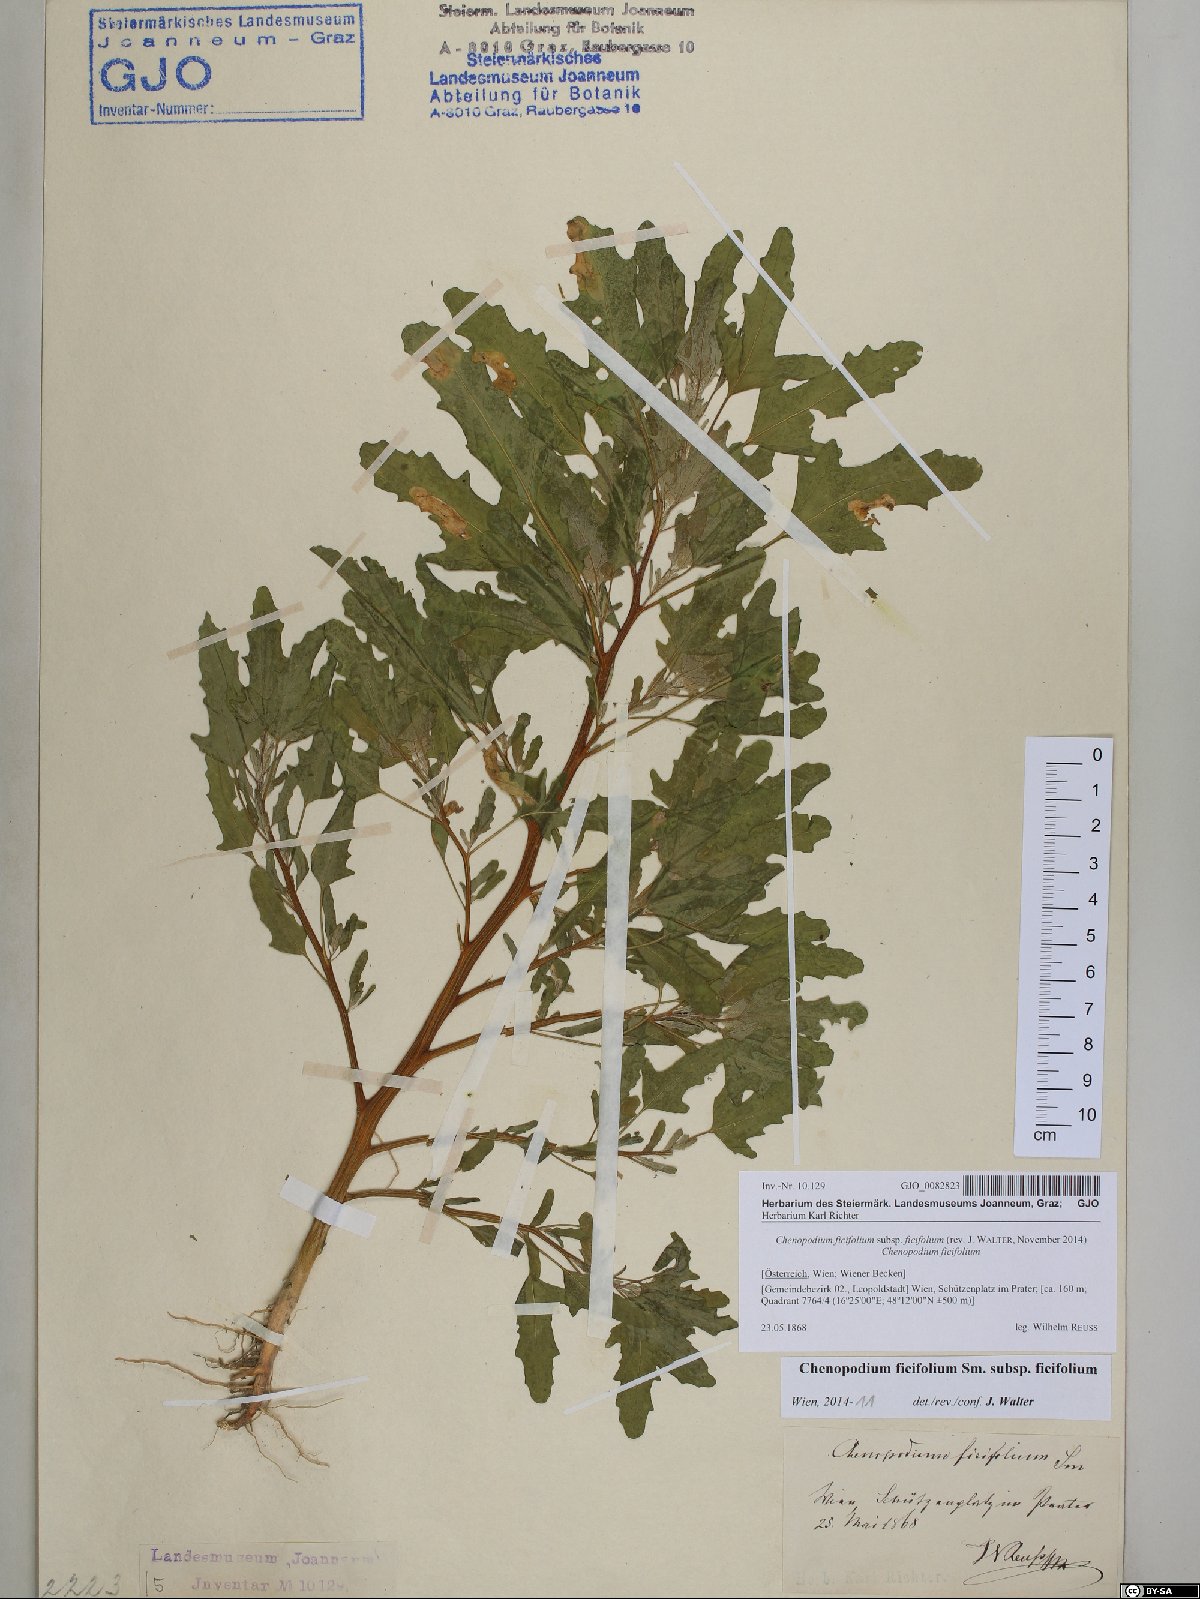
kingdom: Plantae
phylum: Tracheophyta
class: Magnoliopsida
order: Caryophyllales
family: Amaranthaceae
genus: Chenopodium
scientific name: Chenopodium ficifolium
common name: Fig-leaved goosefoot
